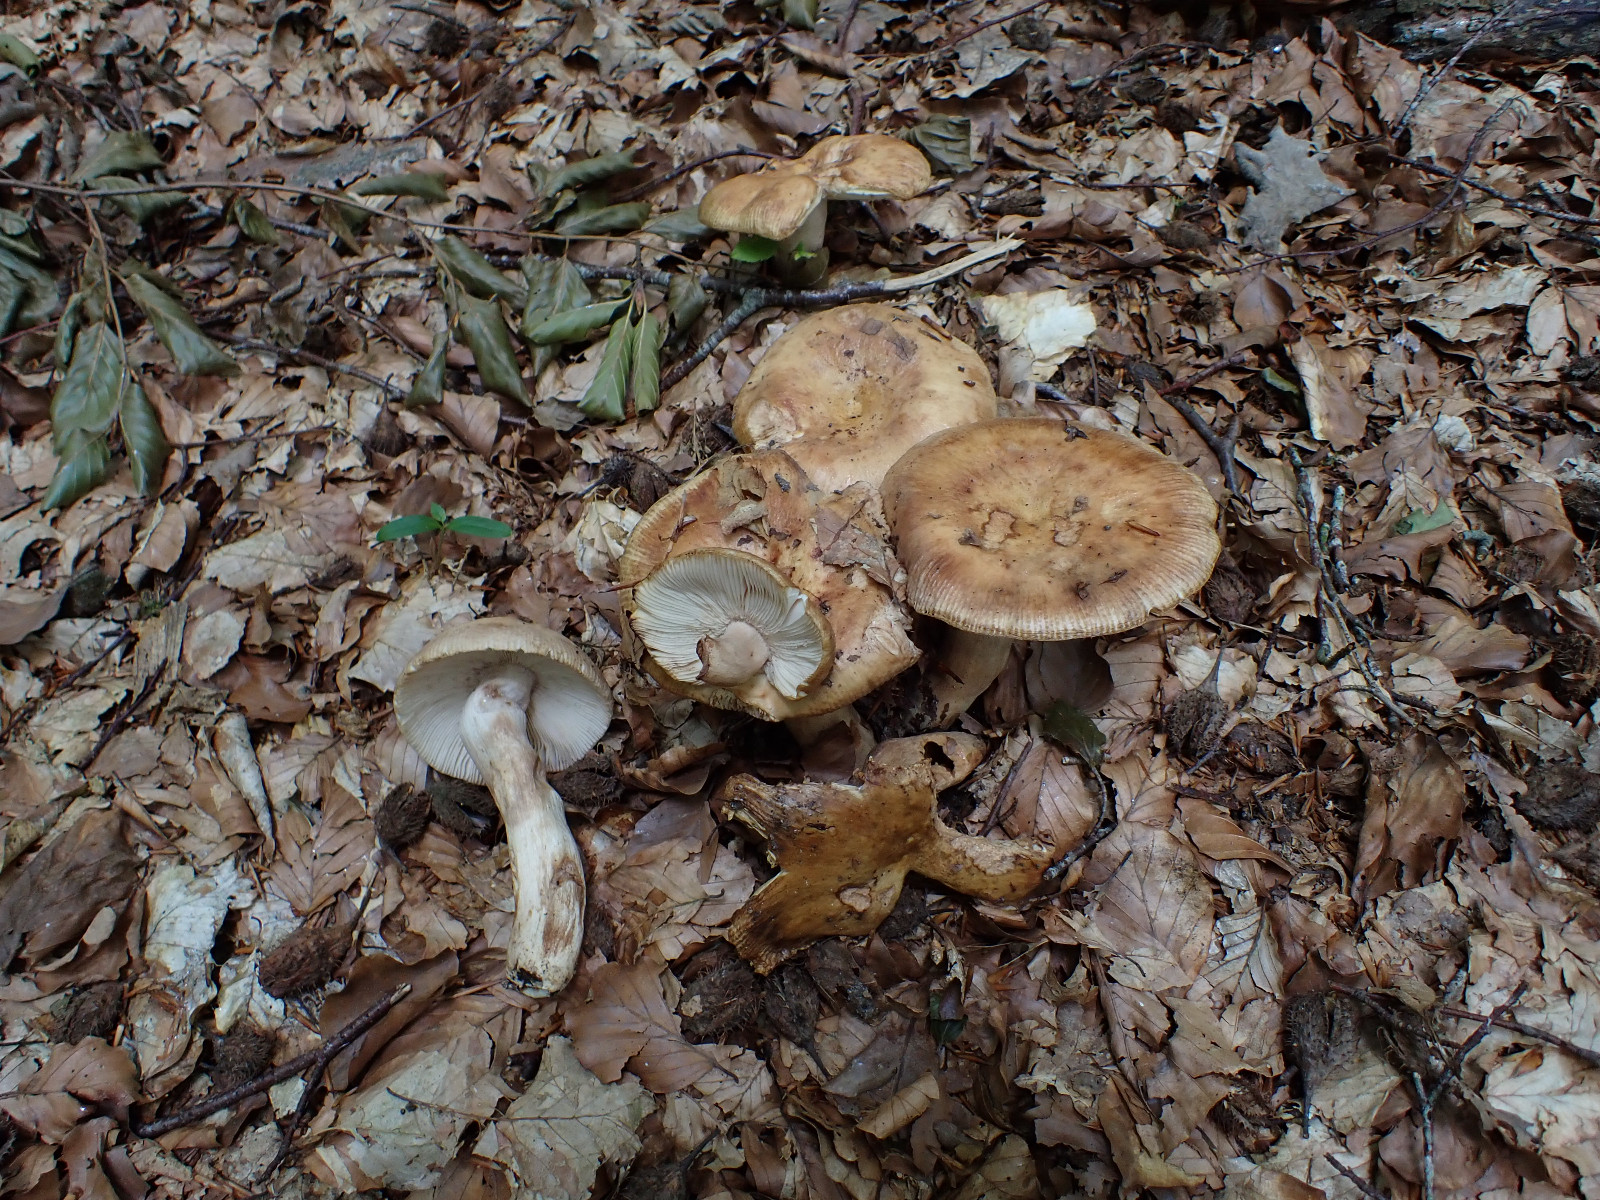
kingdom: Fungi
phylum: Basidiomycota
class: Agaricomycetes
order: Russulales
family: Russulaceae
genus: Russula
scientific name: Russula grata
